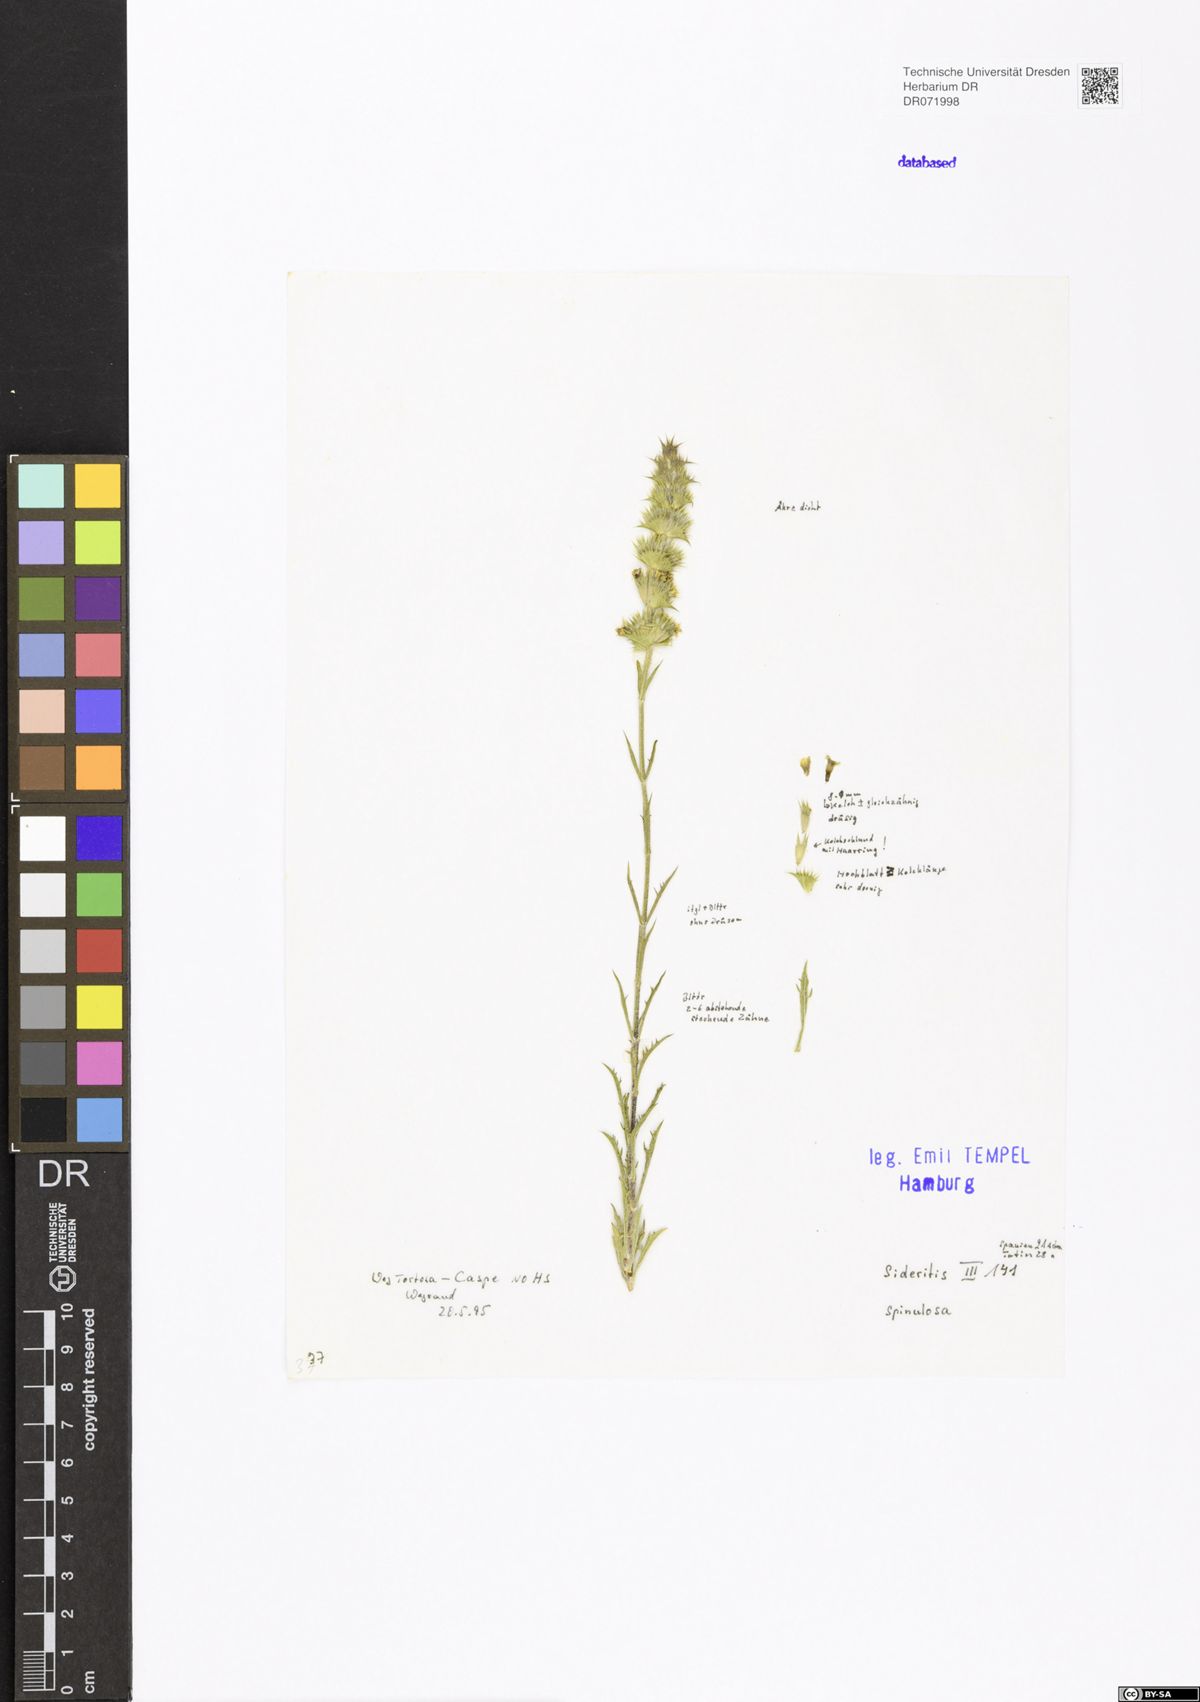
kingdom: Plantae
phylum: Tracheophyta
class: Magnoliopsida
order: Lamiales
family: Lamiaceae
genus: Sideritis
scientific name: Sideritis spinulosa
